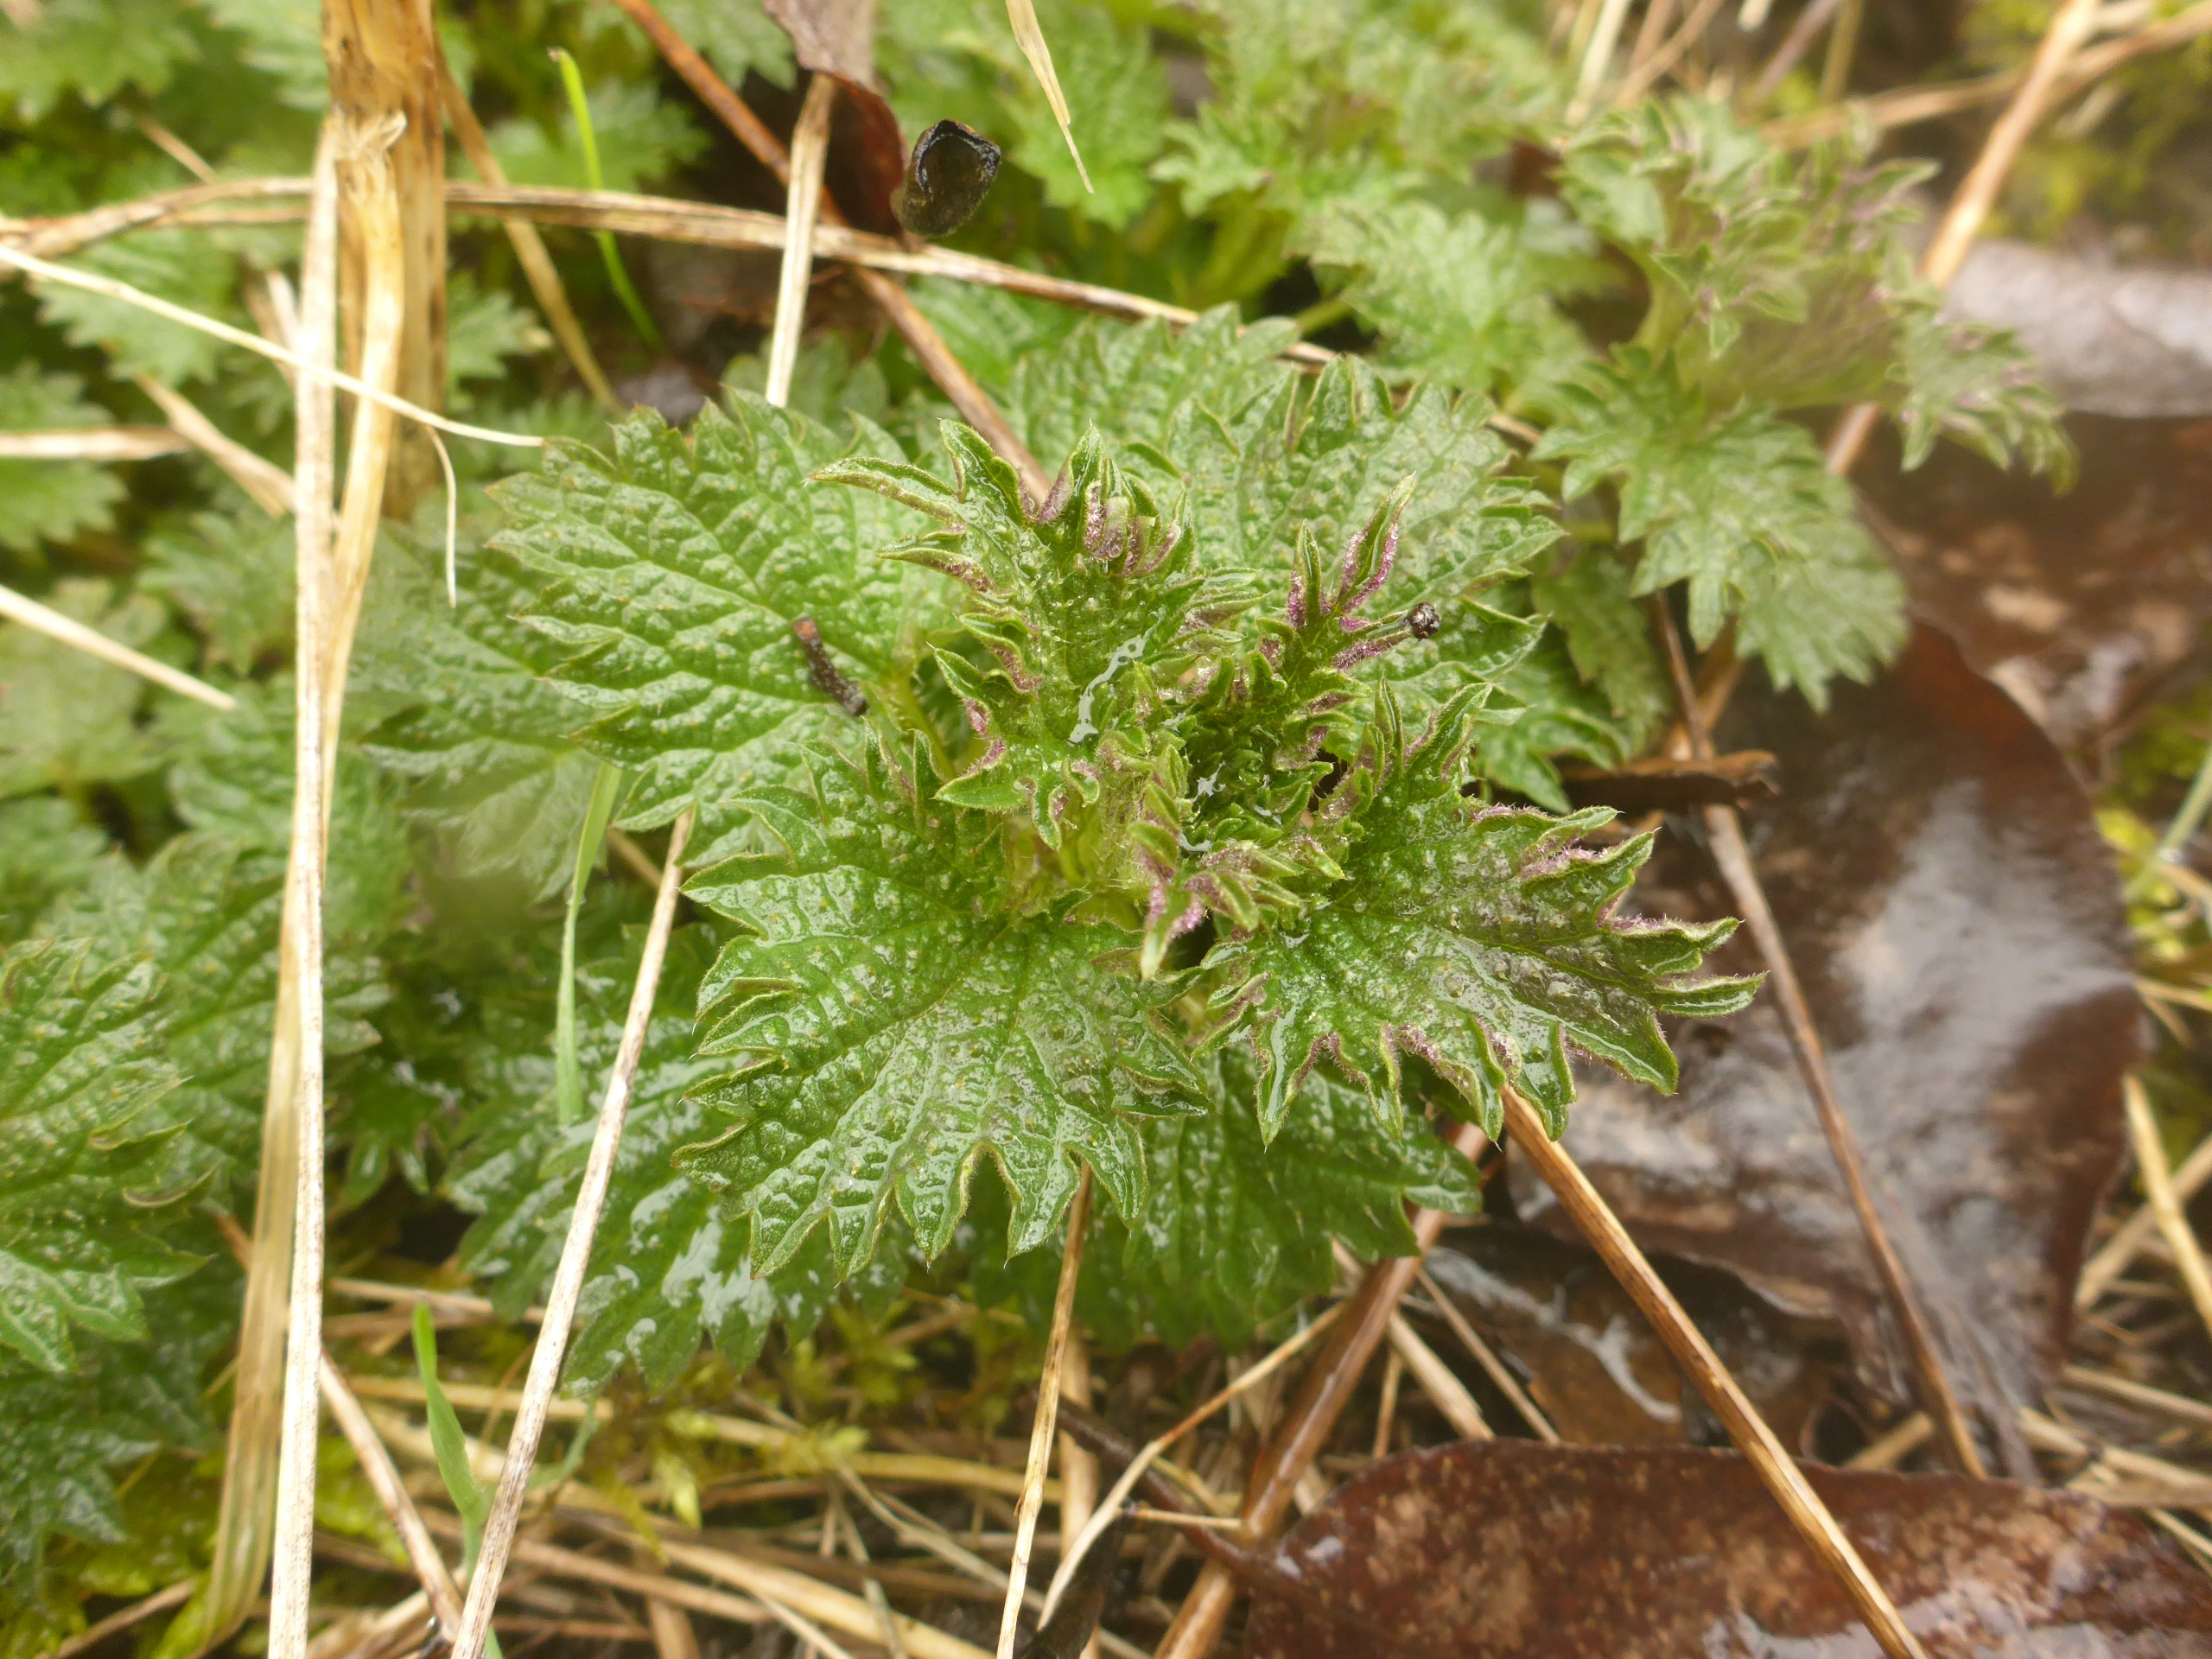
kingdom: Plantae
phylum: Tracheophyta
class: Magnoliopsida
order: Rosales
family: Urticaceae
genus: Urtica
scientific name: Urtica dioica
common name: Stor nælde
